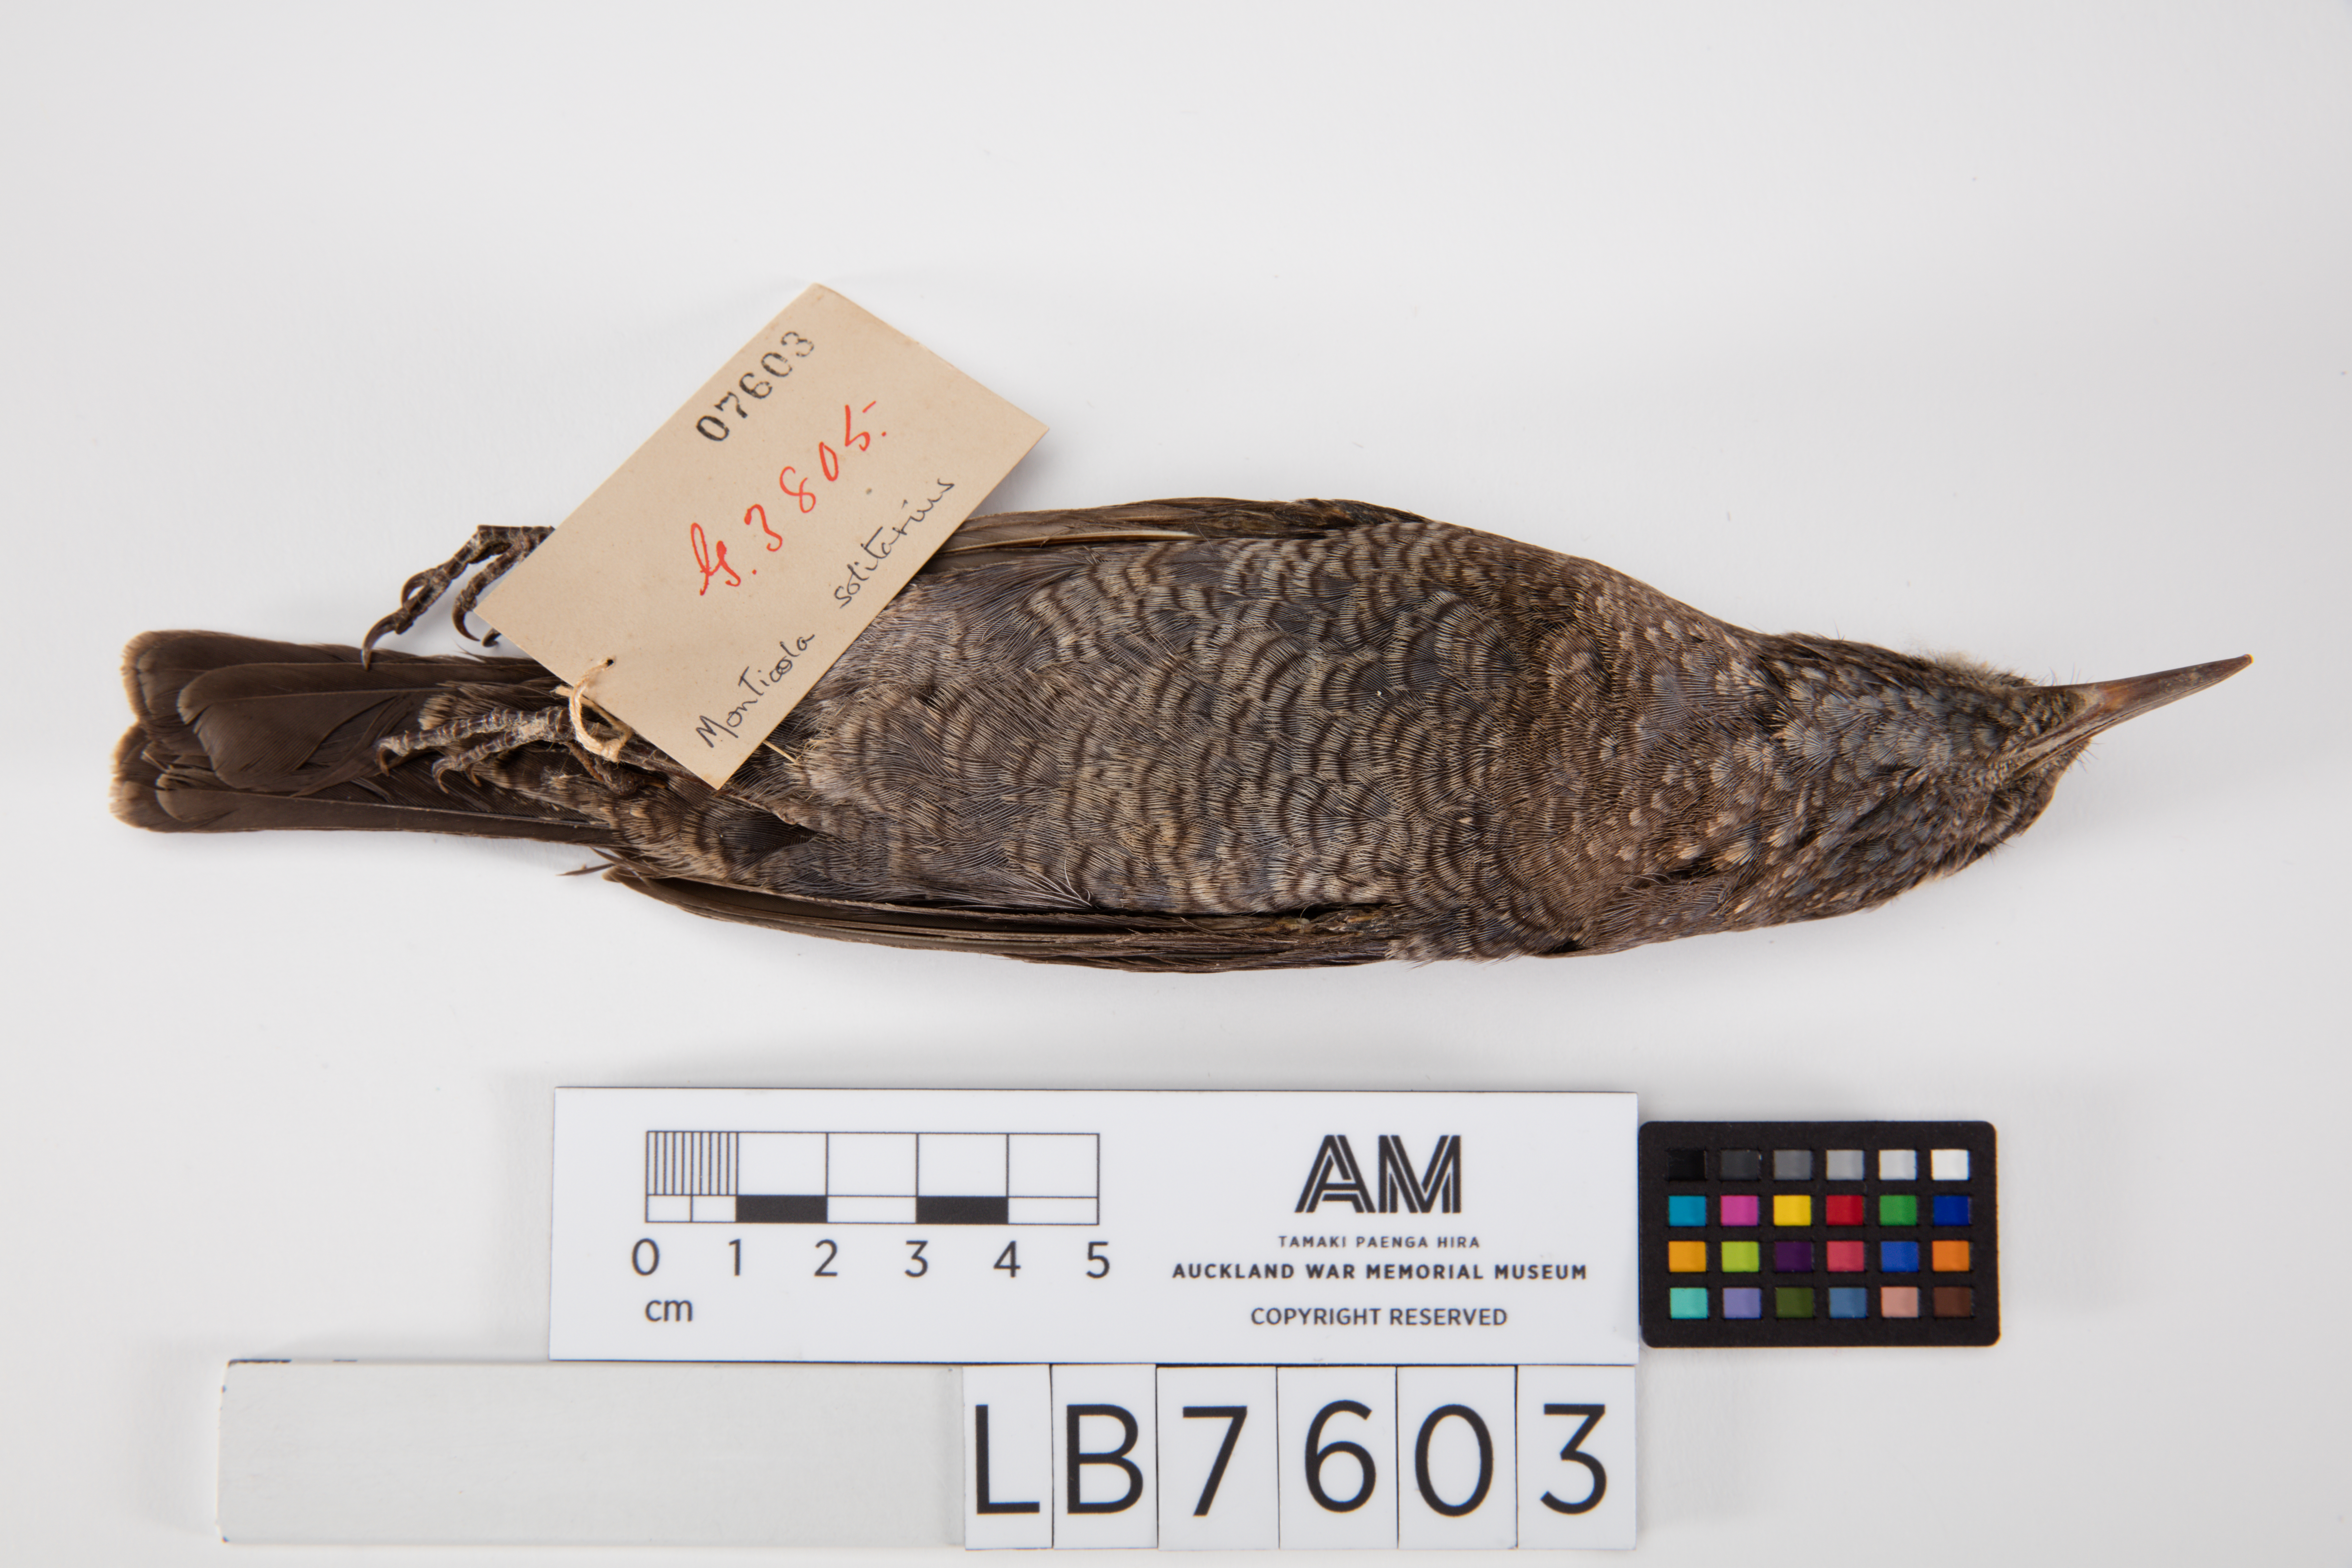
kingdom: Animalia
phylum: Chordata
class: Aves
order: Passeriformes
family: Muscicapidae
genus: Monticola
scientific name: Monticola solitarius
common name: Blue rock thrush
